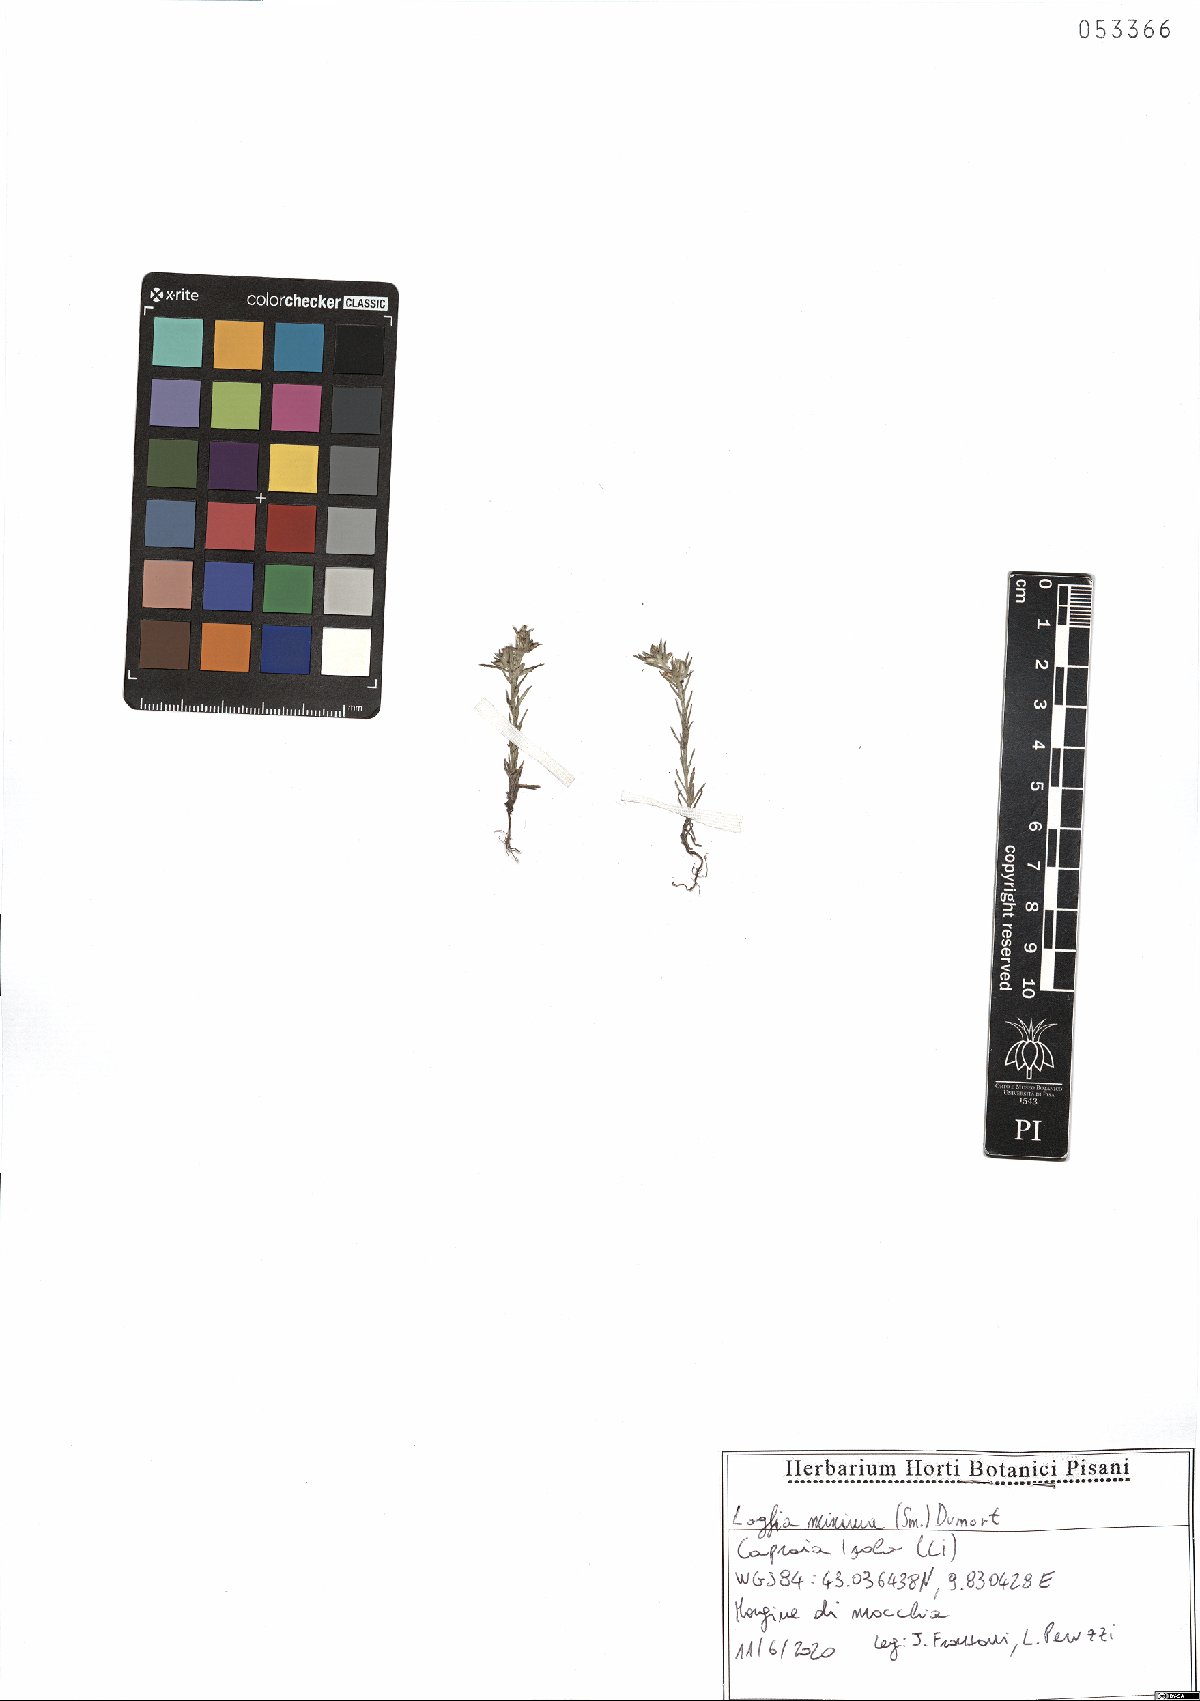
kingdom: Plantae
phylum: Tracheophyta
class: Magnoliopsida
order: Asterales
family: Asteraceae
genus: Logfia
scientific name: Logfia minima
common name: Little cottonrose
